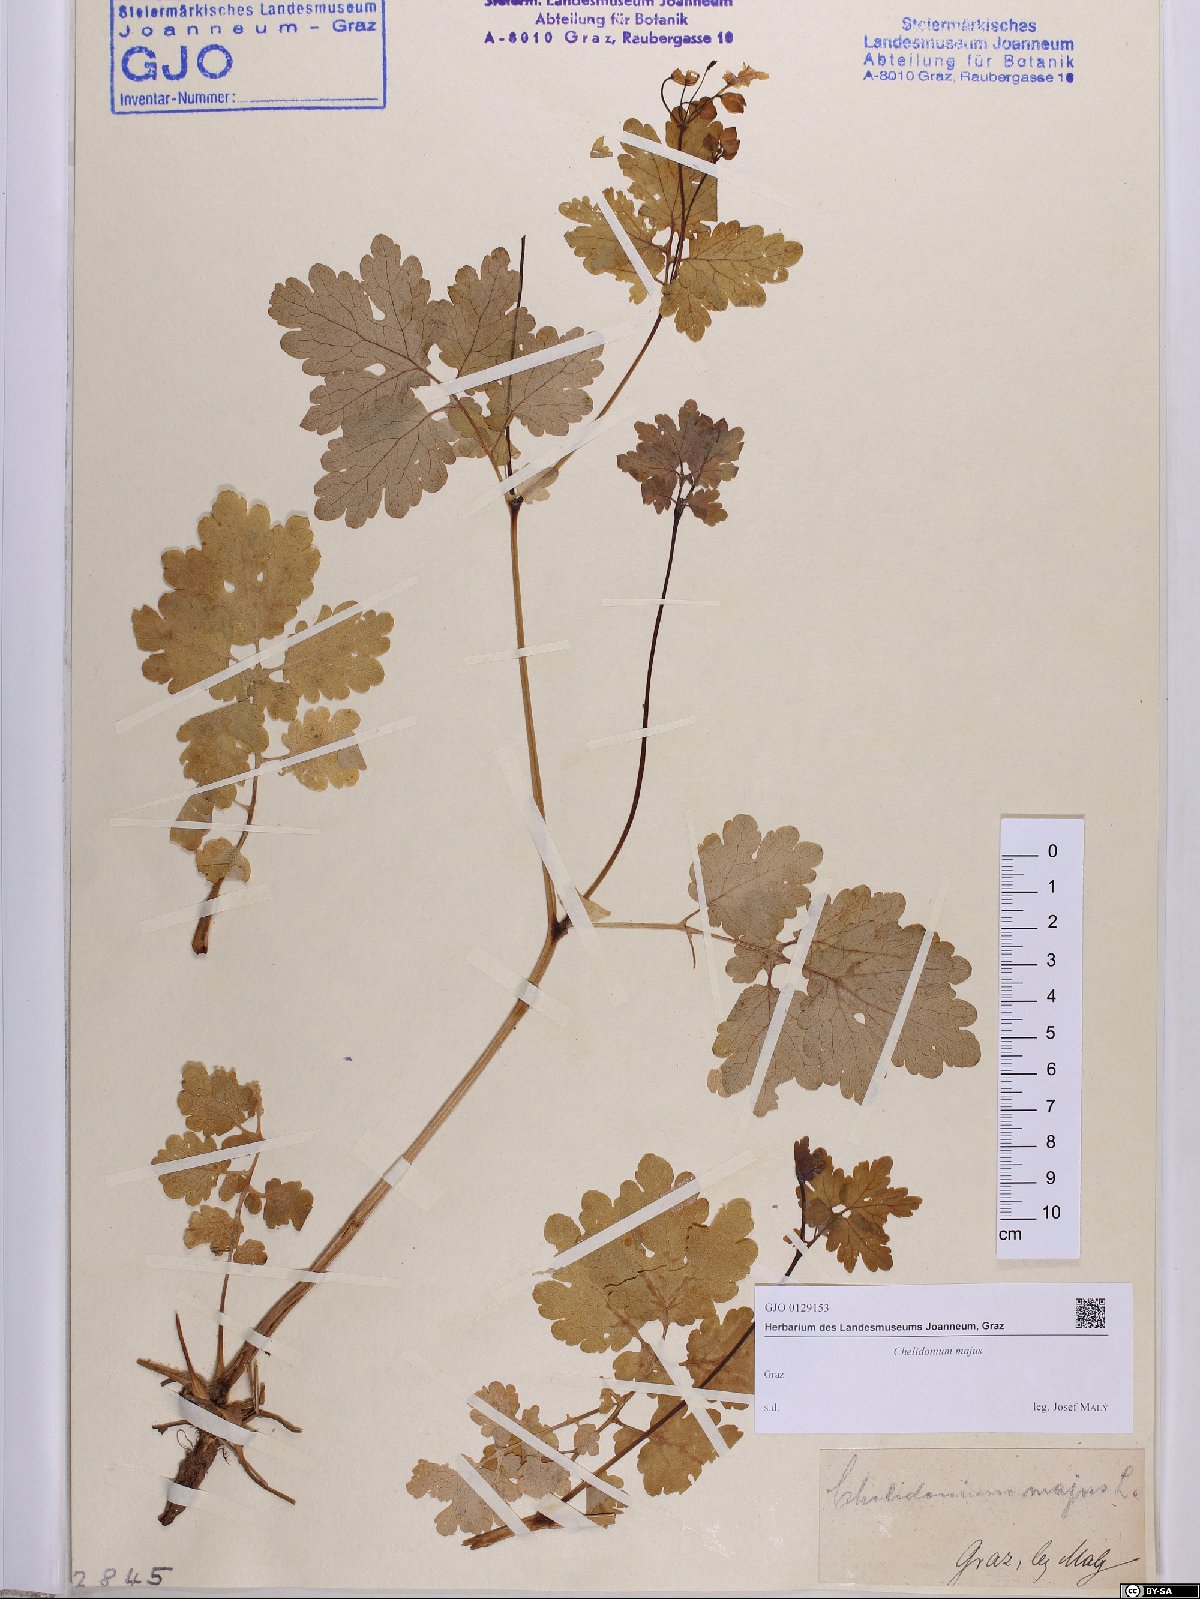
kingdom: Plantae
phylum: Tracheophyta
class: Magnoliopsida
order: Ranunculales
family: Papaveraceae
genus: Chelidonium
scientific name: Chelidonium majus
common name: Greater celandine
